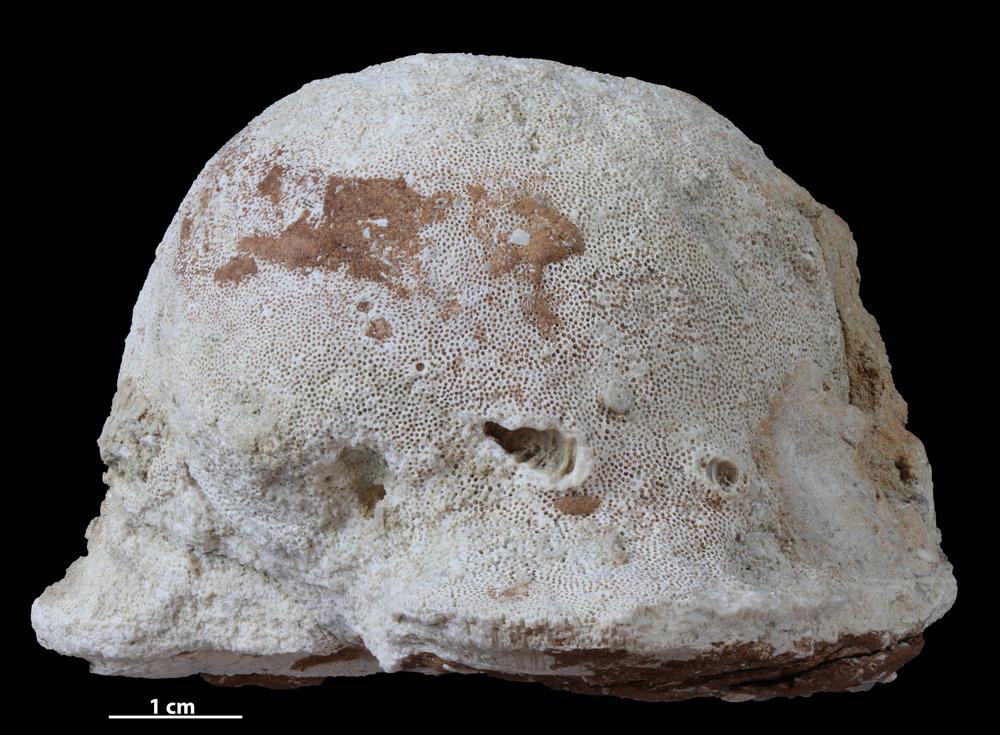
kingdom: Animalia
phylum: Bryozoa
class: Stenolaemata
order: Trepostomatida
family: Diplotrypidae
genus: Diplotrypa
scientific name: Diplotrypa
